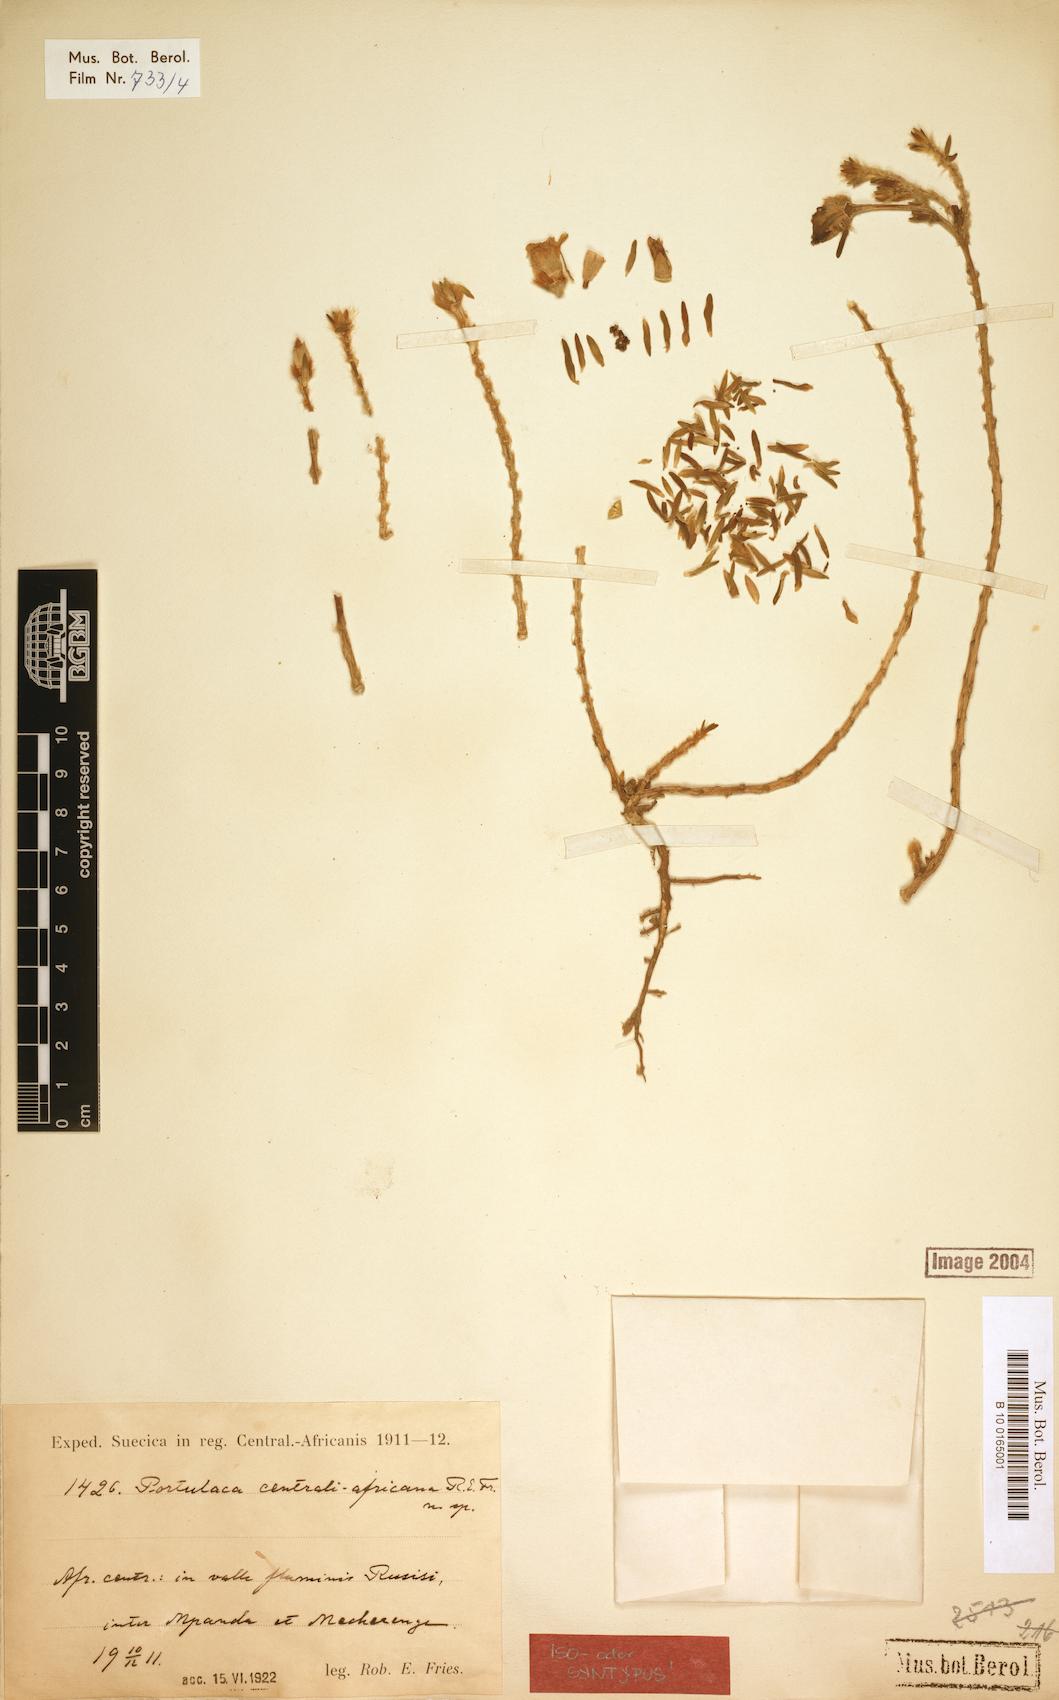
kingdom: Plantae
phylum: Tracheophyta
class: Magnoliopsida
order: Caryophyllales
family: Portulacaceae
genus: Portulaca
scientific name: Portulaca centrali-africana
